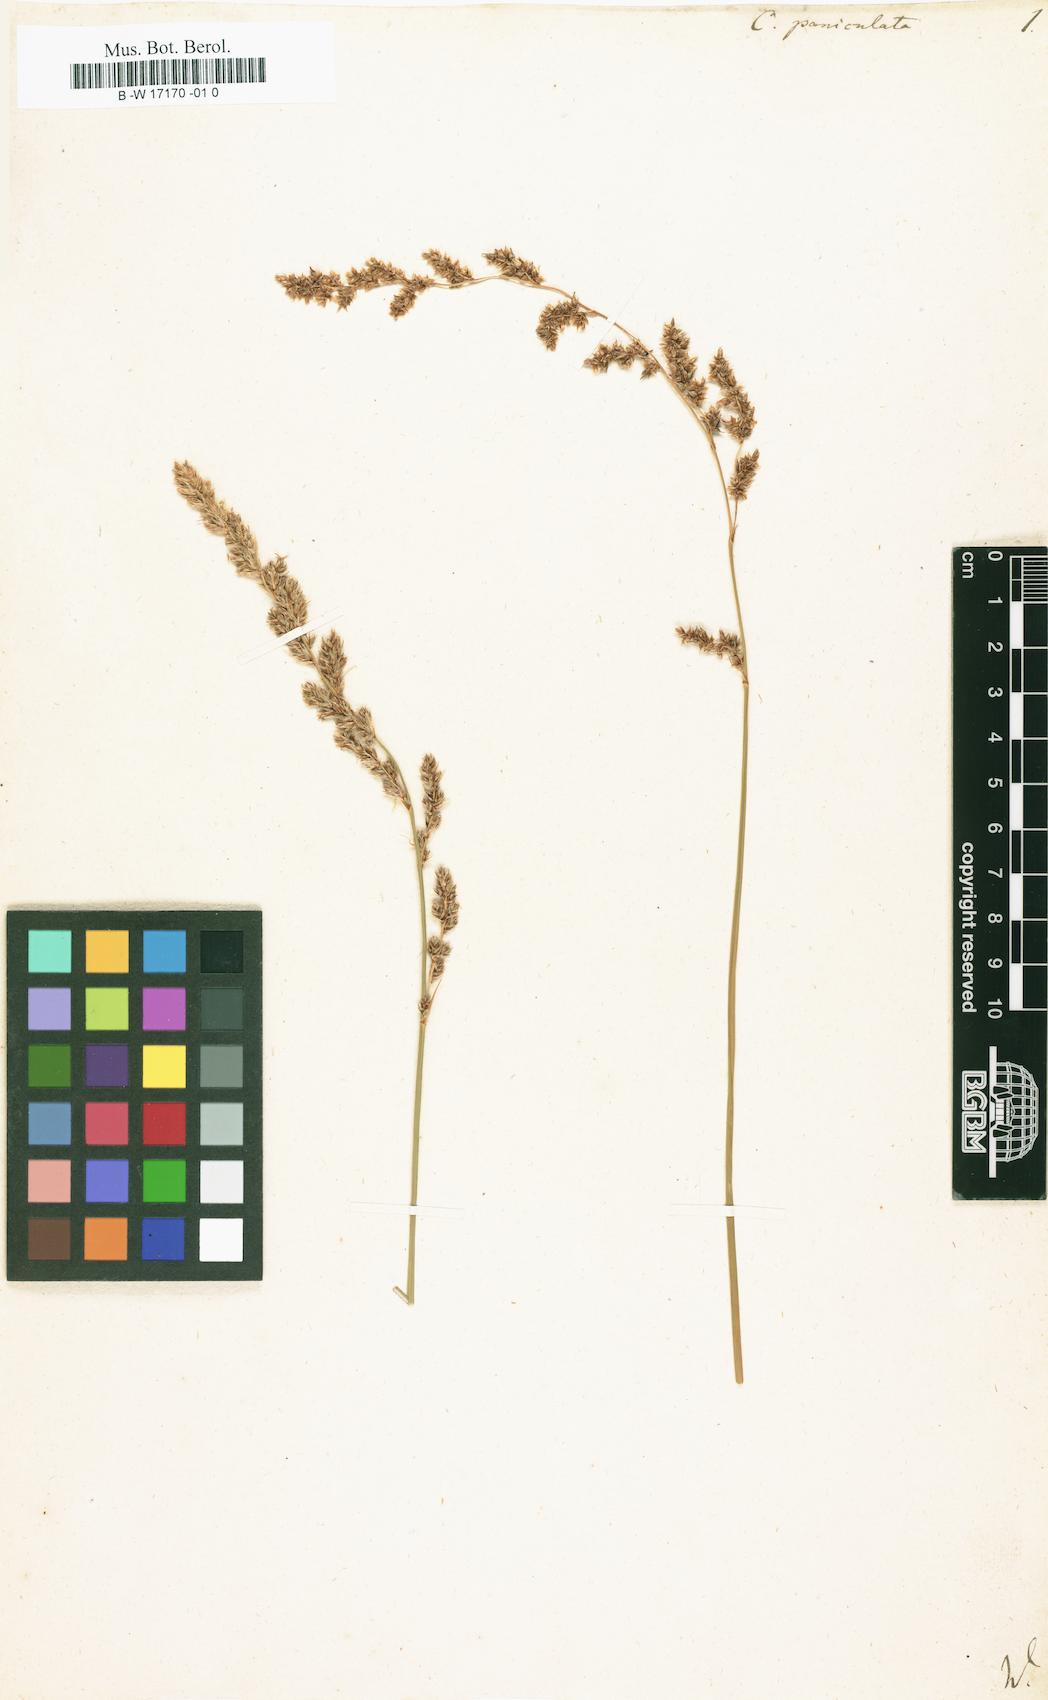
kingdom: Plantae
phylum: Tracheophyta
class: Liliopsida
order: Poales
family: Cyperaceae
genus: Carex
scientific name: Carex paniculata
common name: Greater tussock-sedge
